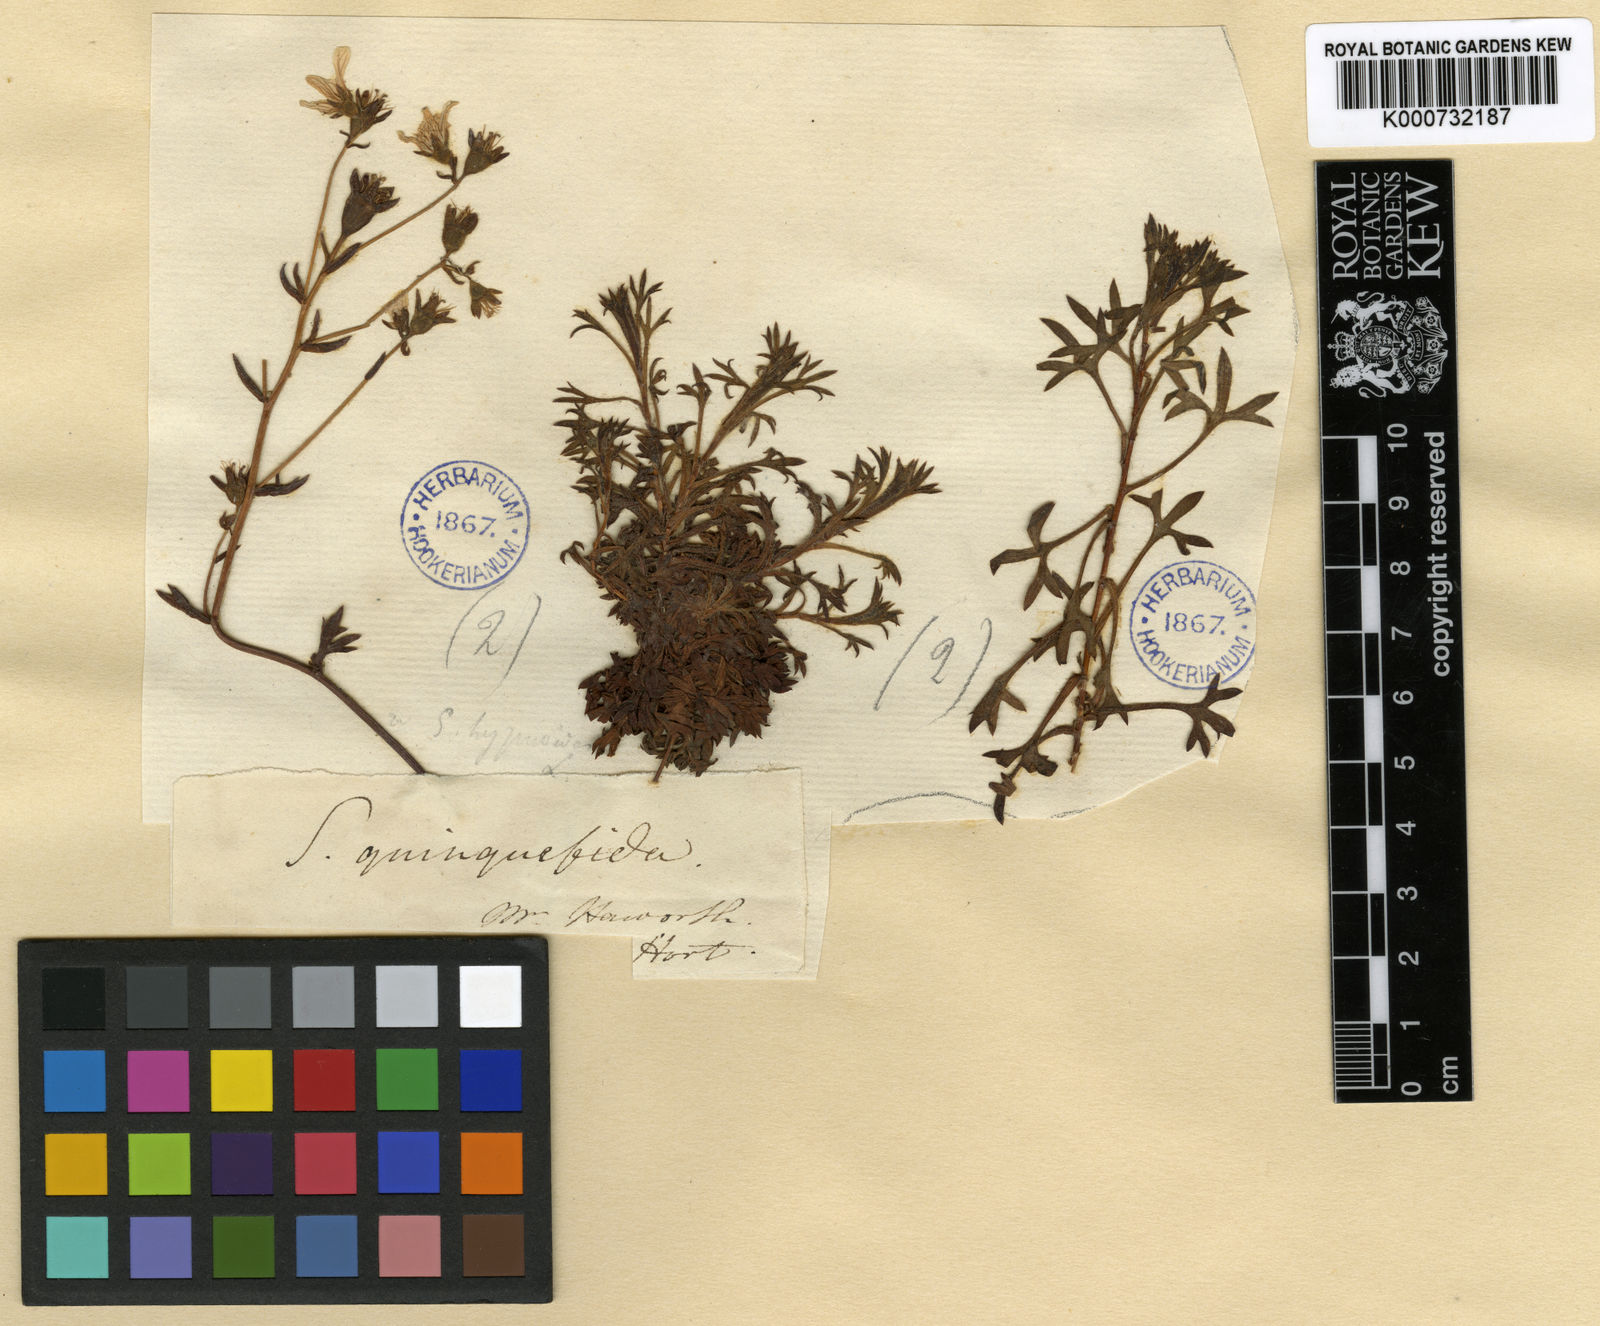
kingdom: Plantae
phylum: Tracheophyta
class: Magnoliopsida
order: Saxifragales
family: Saxifragaceae
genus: Saxifraga
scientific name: Saxifraga rosacea
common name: Irish saxifrage
